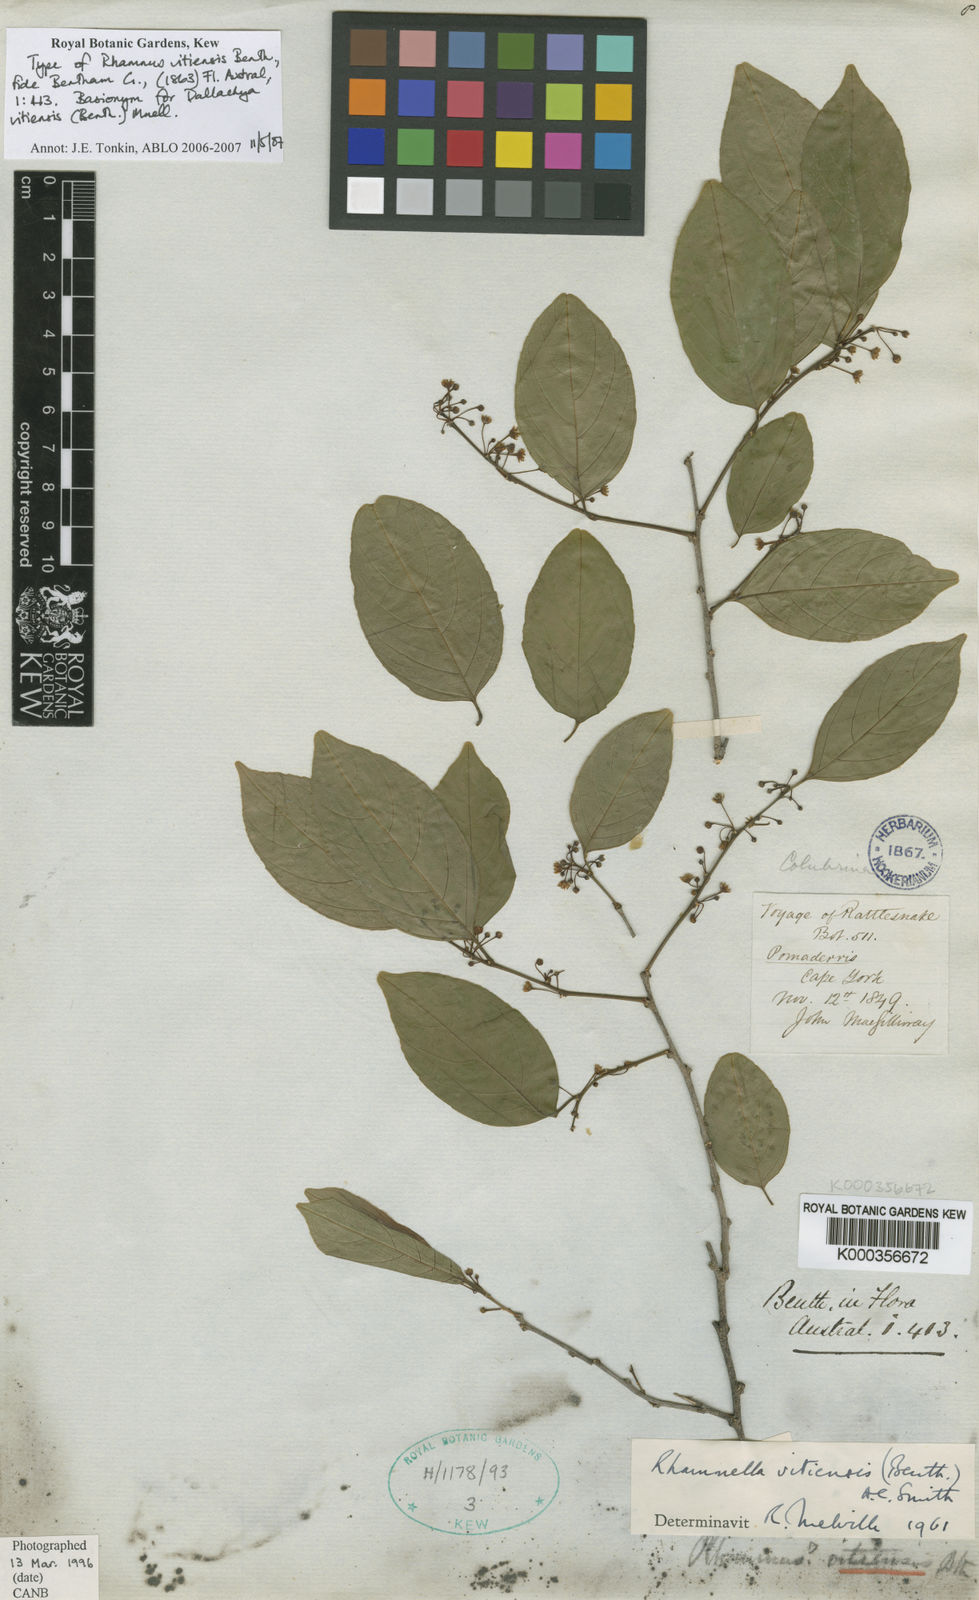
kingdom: Plantae
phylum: Tracheophyta
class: Magnoliopsida
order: Rosales
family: Rhamnaceae
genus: Dallachya
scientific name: Dallachya vitiensis
